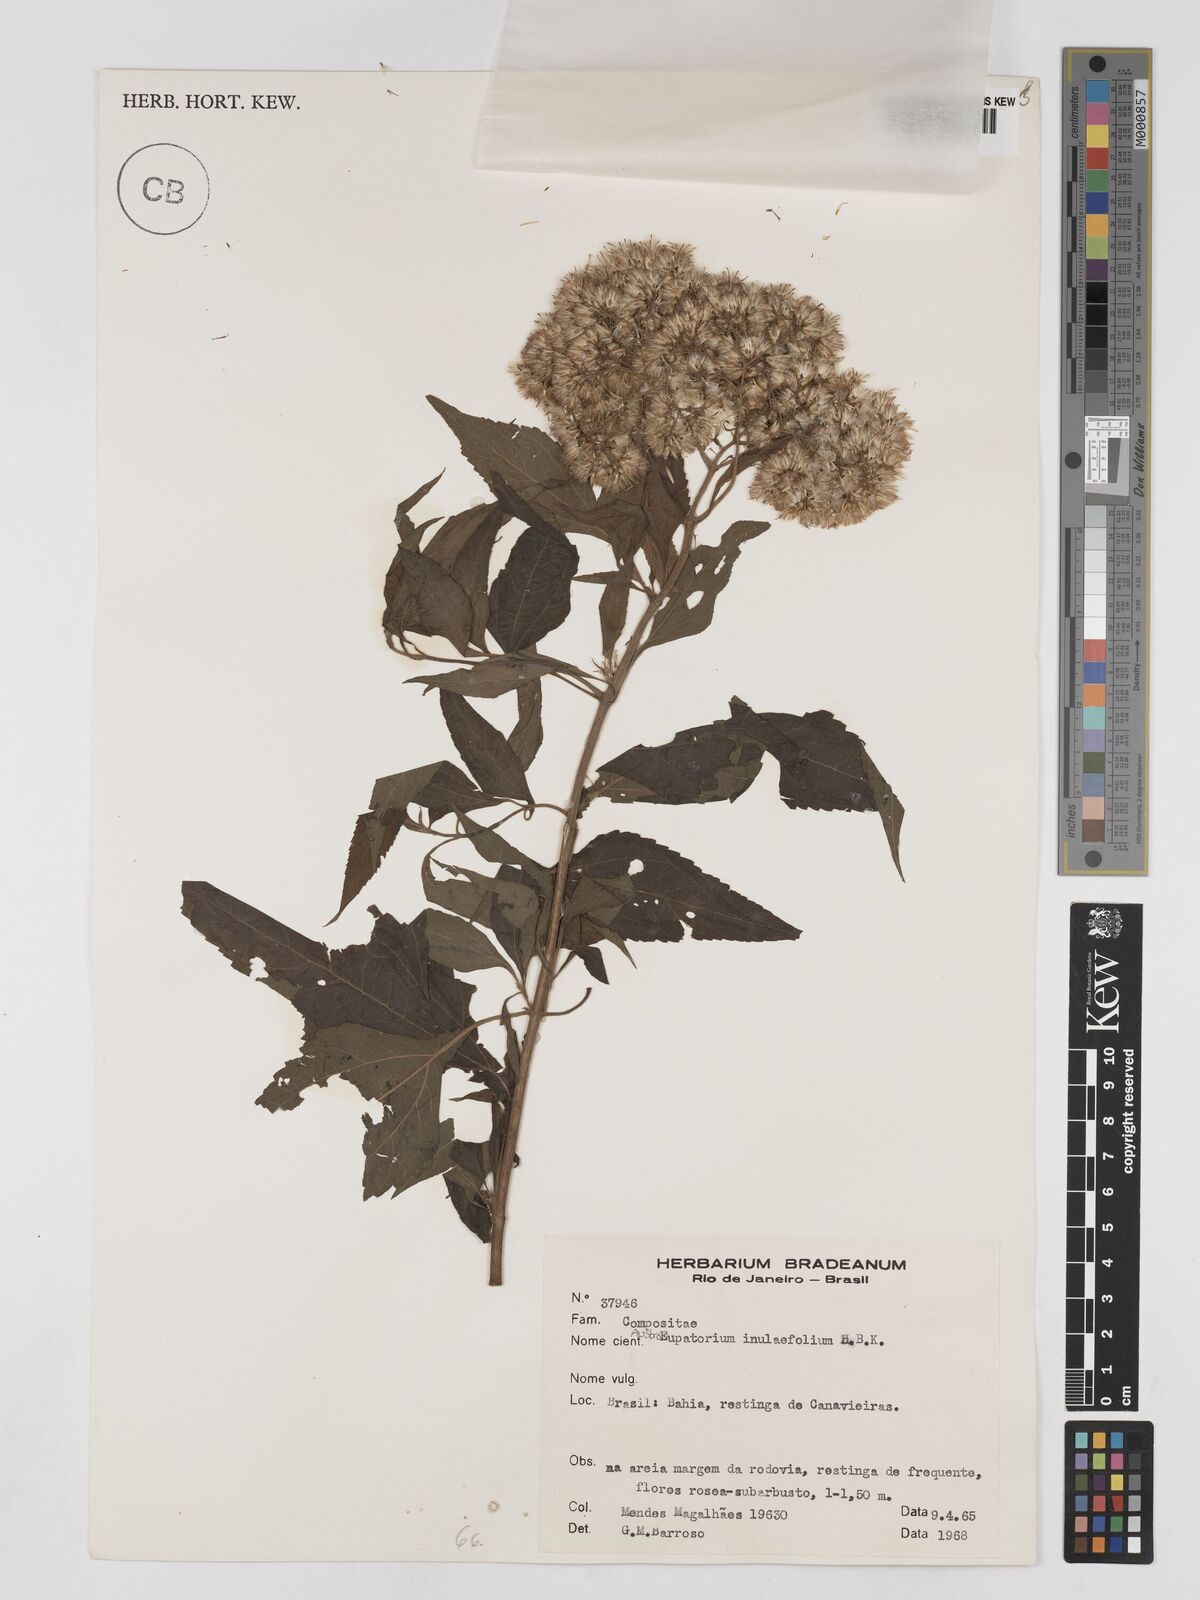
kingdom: Plantae
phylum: Tracheophyta
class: Magnoliopsida
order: Asterales
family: Asteraceae
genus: Austroeupatorium
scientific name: Austroeupatorium inulifolium
